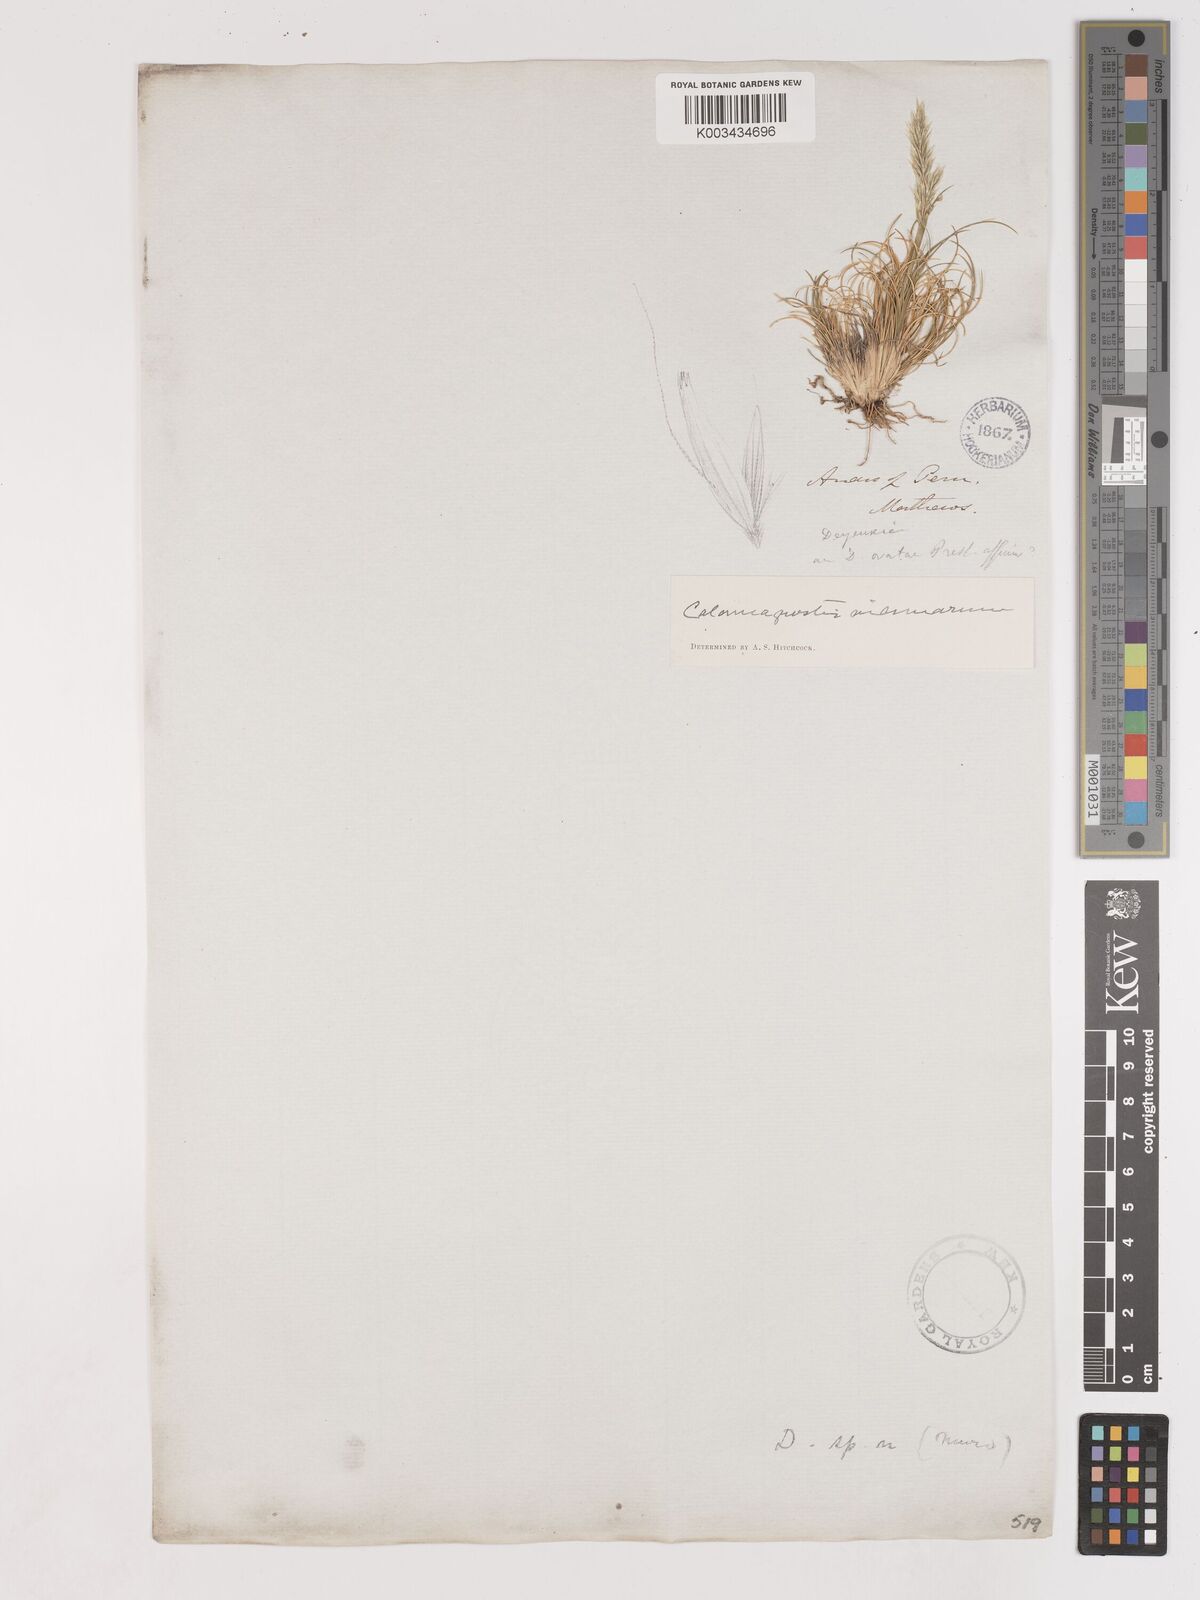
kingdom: Plantae
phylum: Tracheophyta
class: Liliopsida
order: Poales
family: Poaceae
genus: Cinnagrostis
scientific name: Cinnagrostis vicunarum
